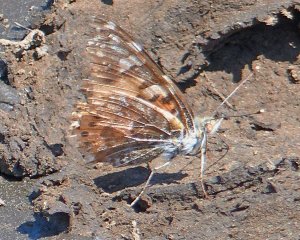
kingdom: Animalia
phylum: Arthropoda
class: Insecta
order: Lepidoptera
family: Nymphalidae
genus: Vanessa
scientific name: Vanessa cardui
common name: Painted Lady
